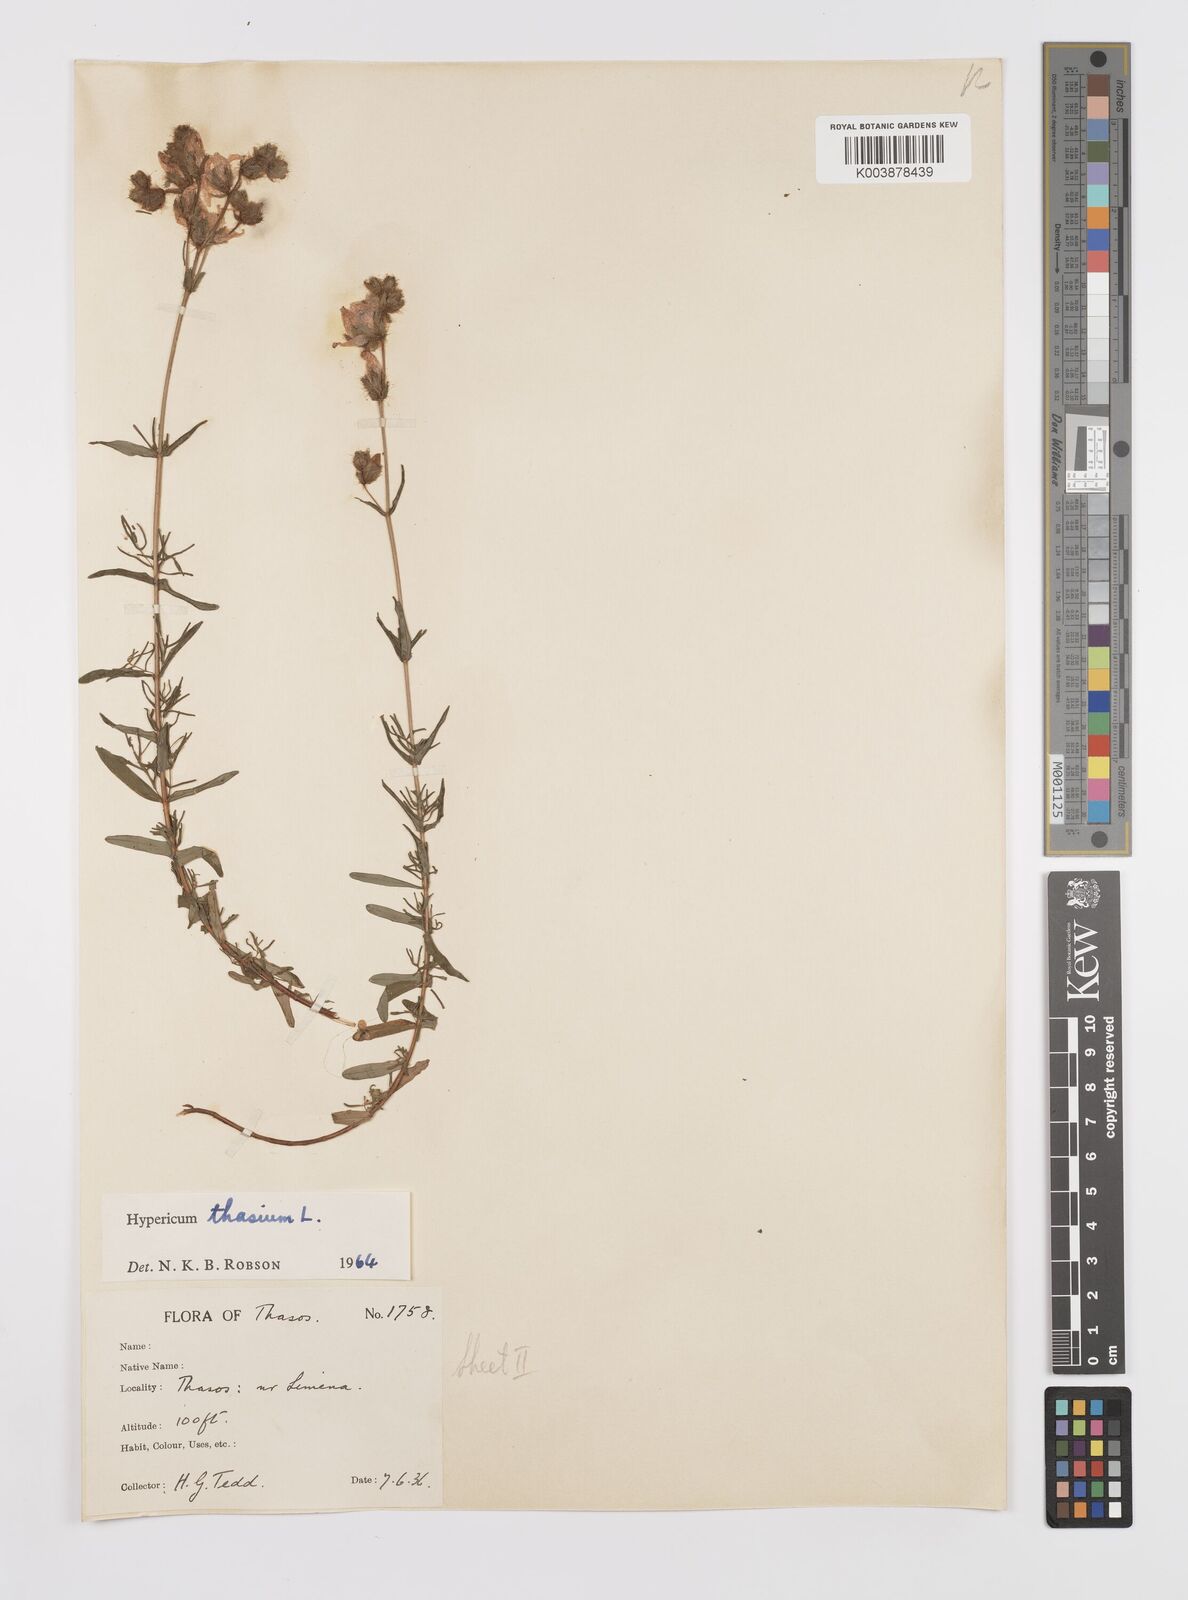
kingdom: Plantae
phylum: Tracheophyta
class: Magnoliopsida
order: Malpighiales
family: Hypericaceae
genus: Hypericum
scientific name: Hypericum thasium
